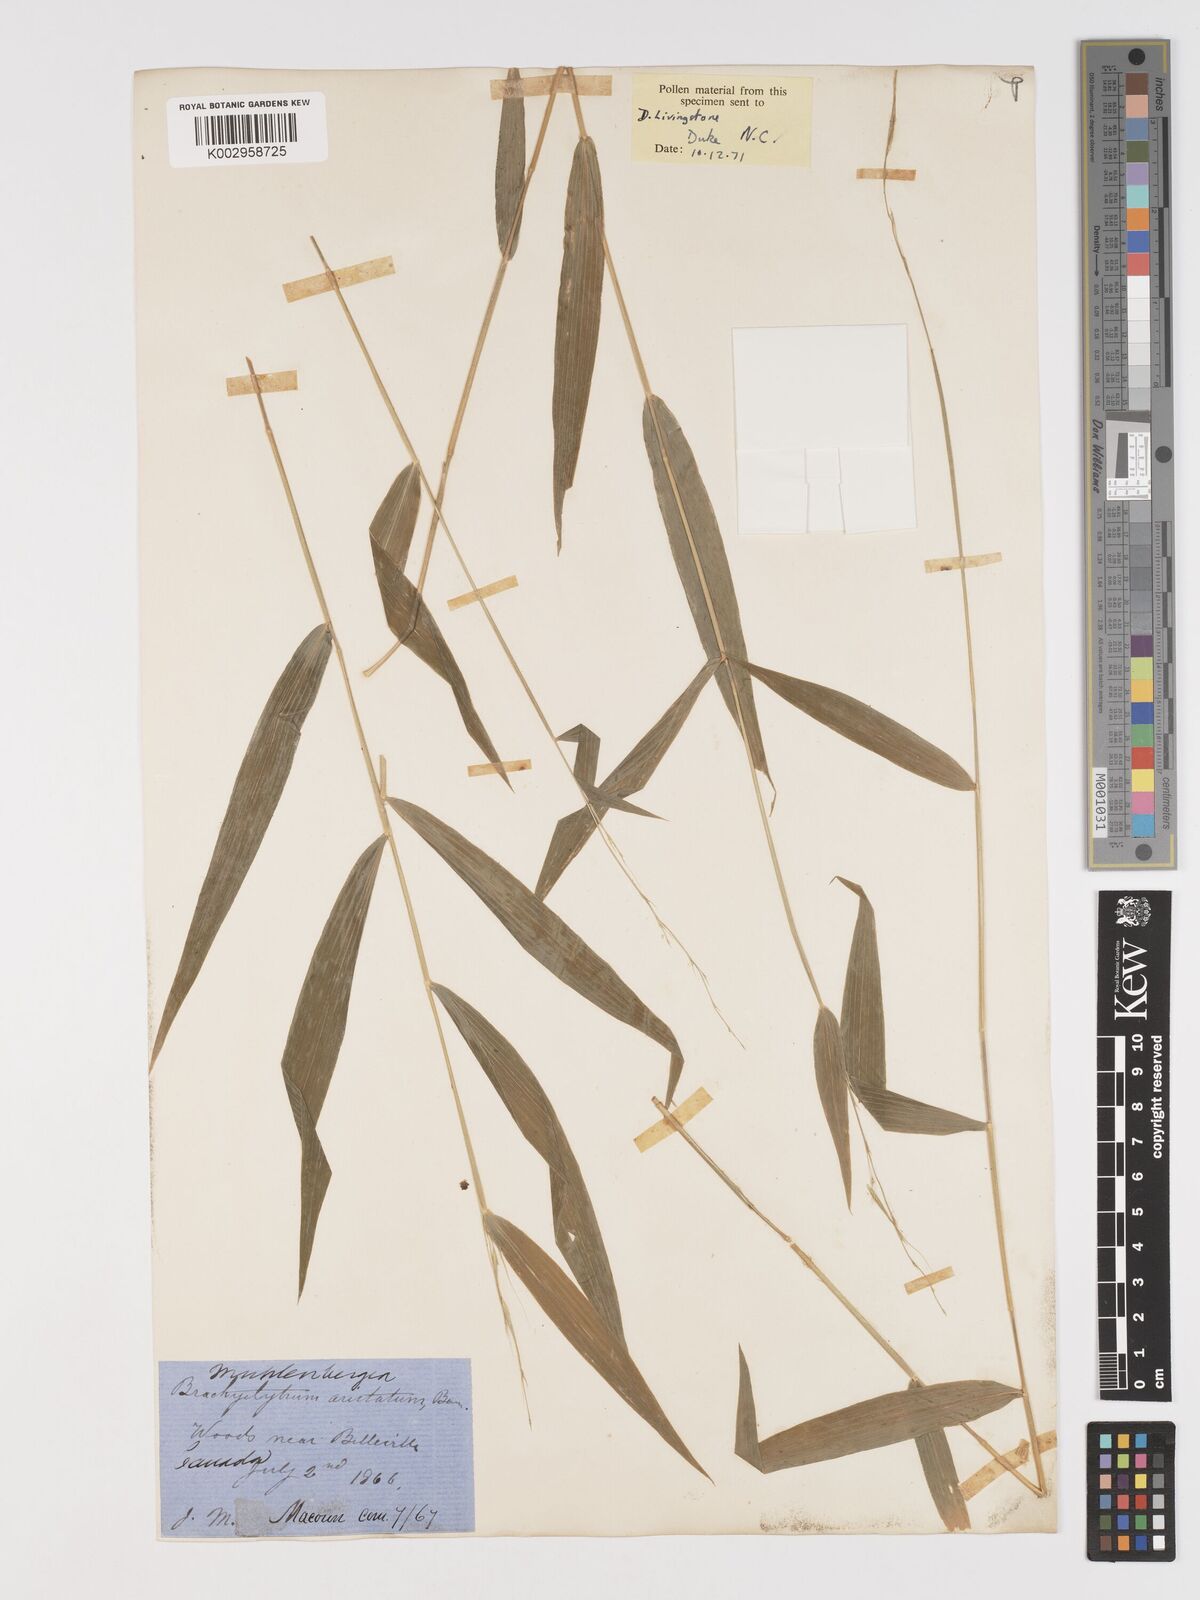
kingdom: Plantae
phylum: Tracheophyta
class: Liliopsida
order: Poales
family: Poaceae
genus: Brachyelytrum
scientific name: Brachyelytrum erectum
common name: Bearded shorthusk
